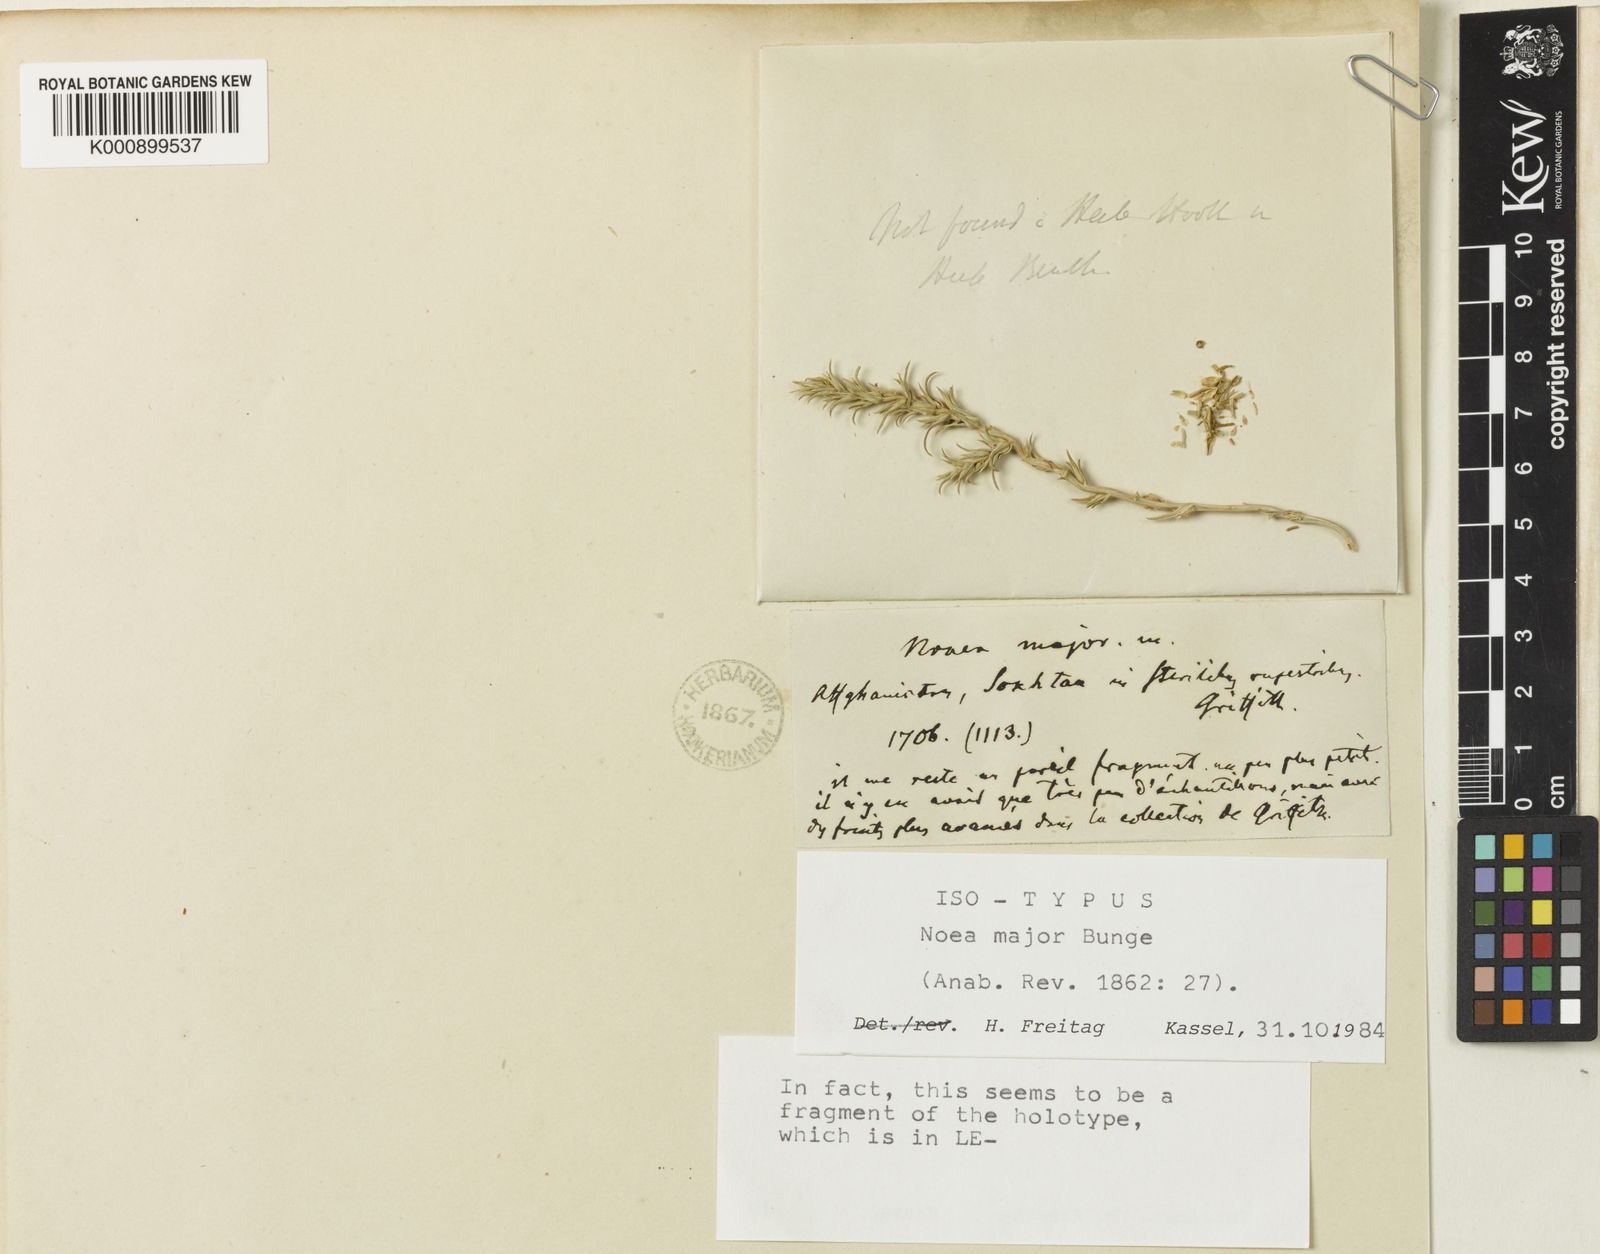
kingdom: Plantae
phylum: Tracheophyta
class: Magnoliopsida
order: Caryophyllales
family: Amaranthaceae
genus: Noaea
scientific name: Noaea major
